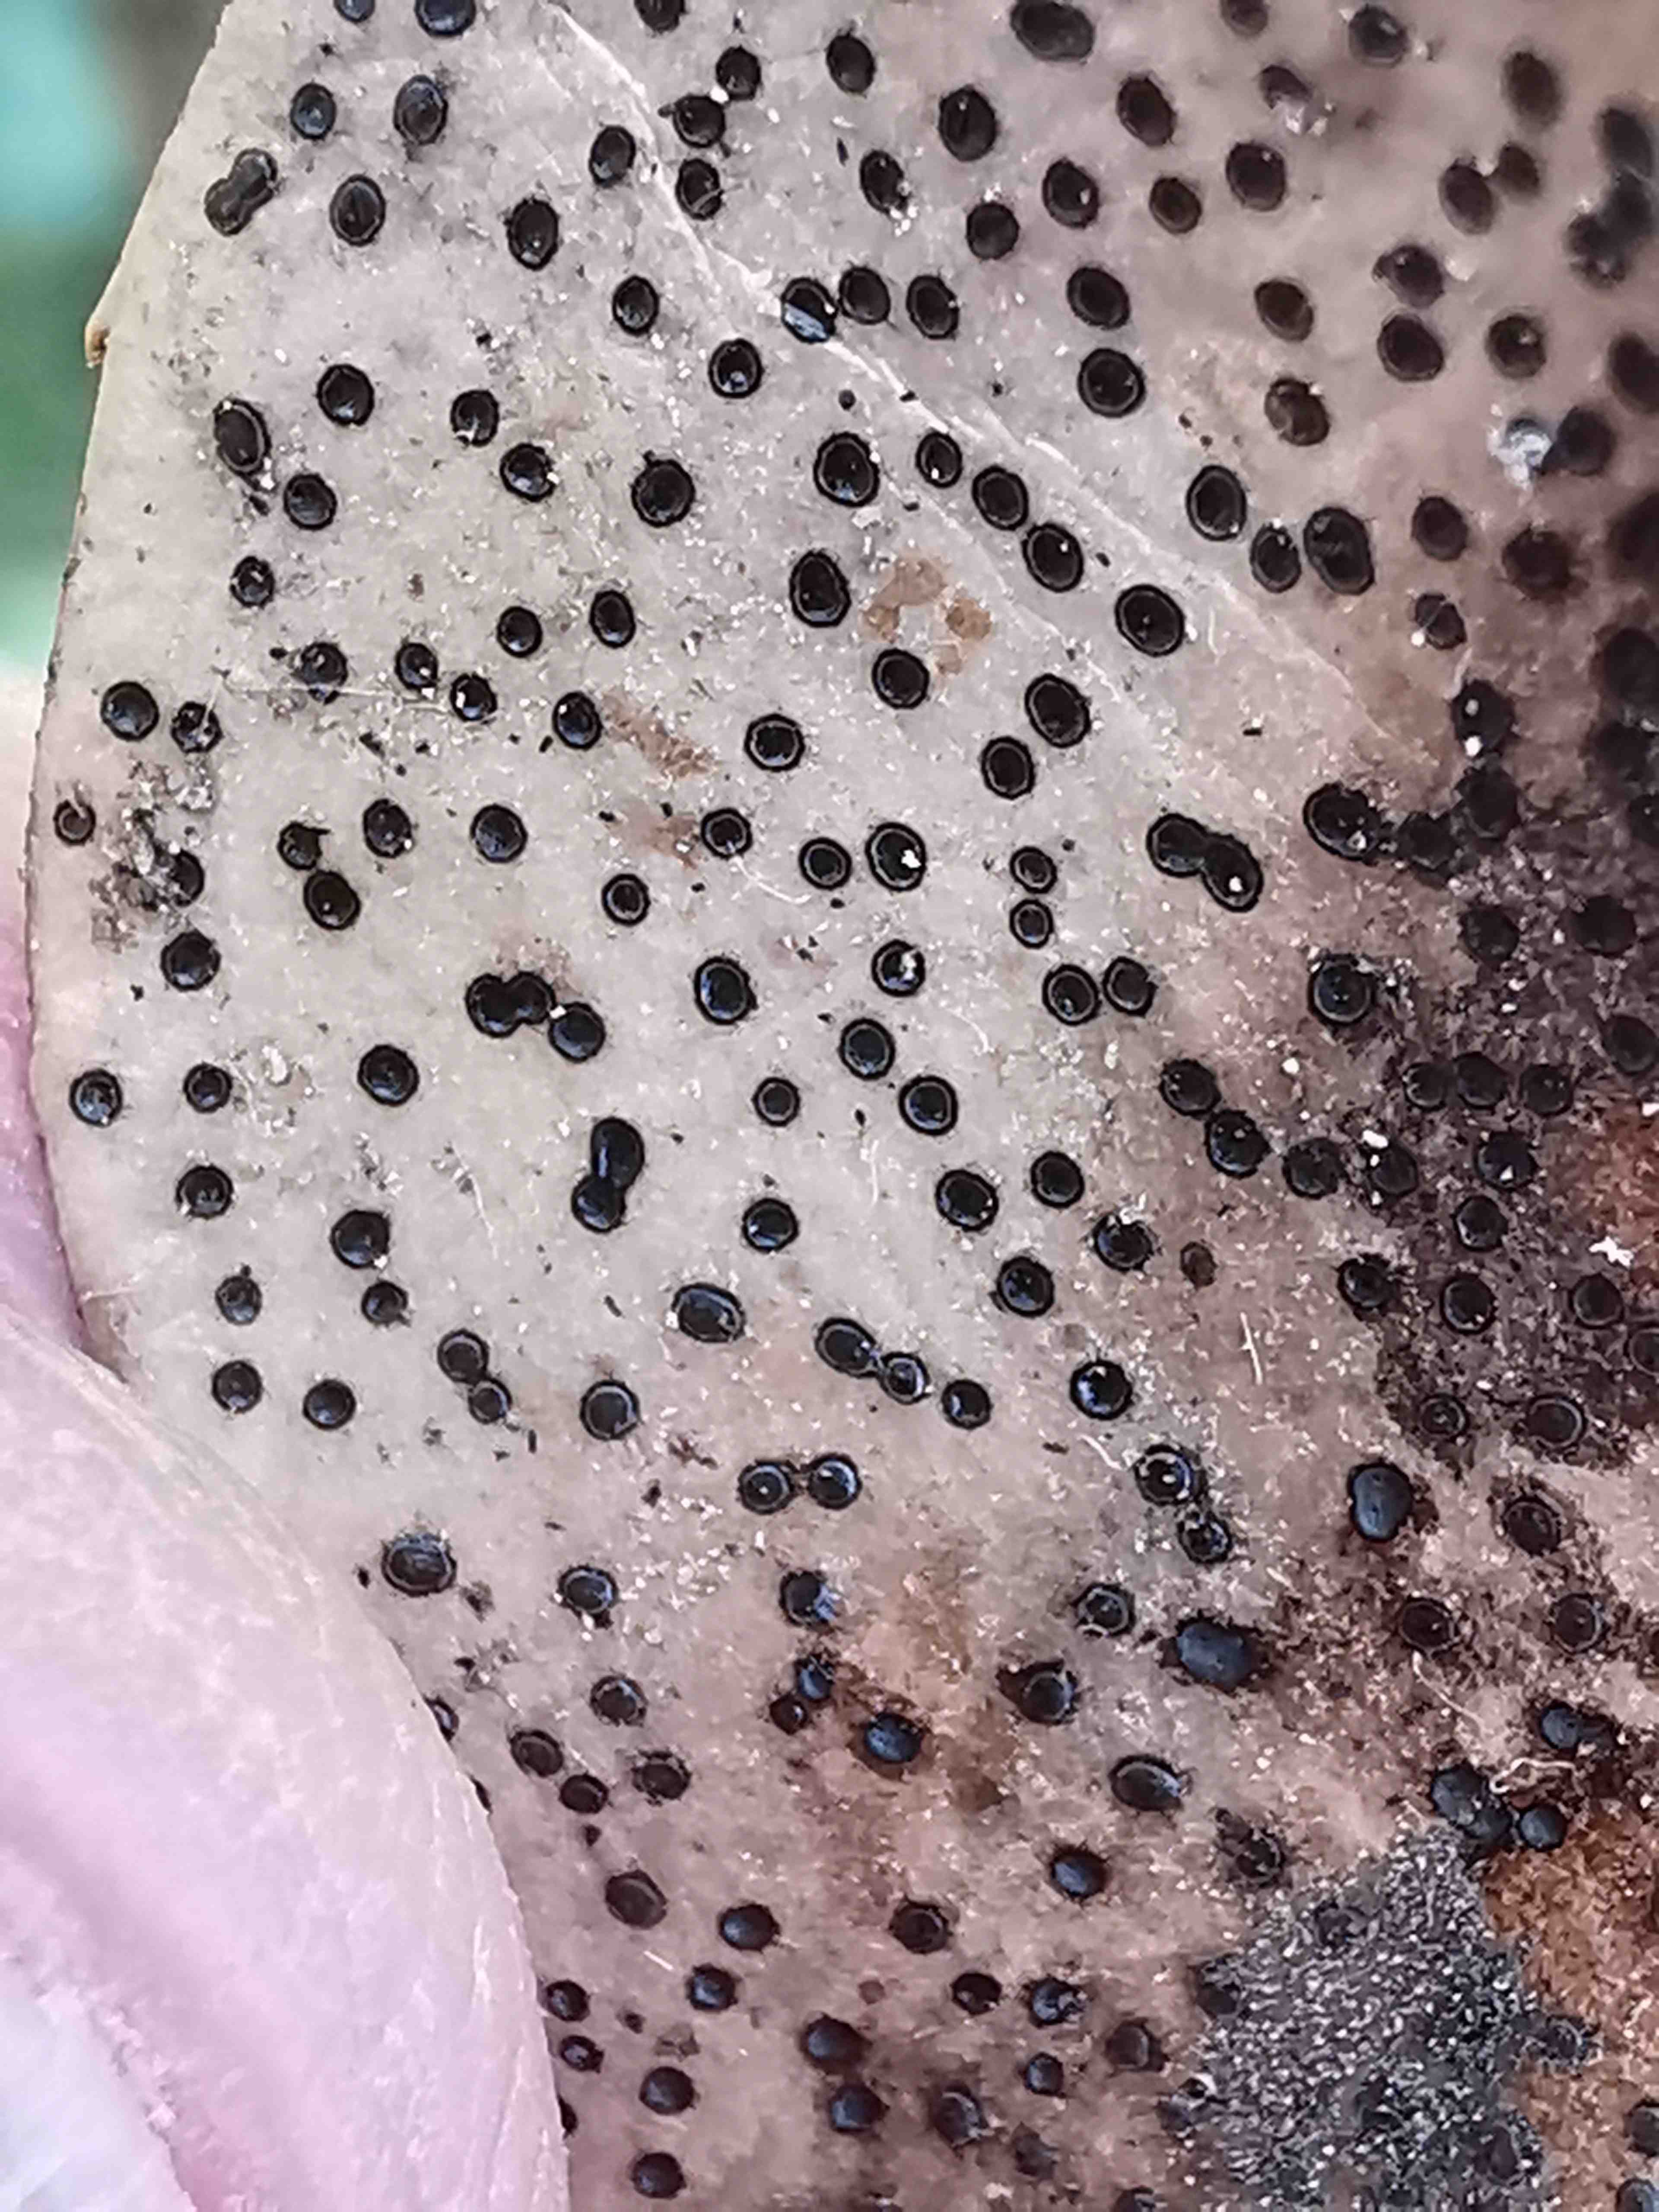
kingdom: Fungi
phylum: Ascomycota
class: Leotiomycetes
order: Helotiales
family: Cenangiaceae
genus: Trochila
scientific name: Trochila ilicina
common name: kristtorn-lågskive
